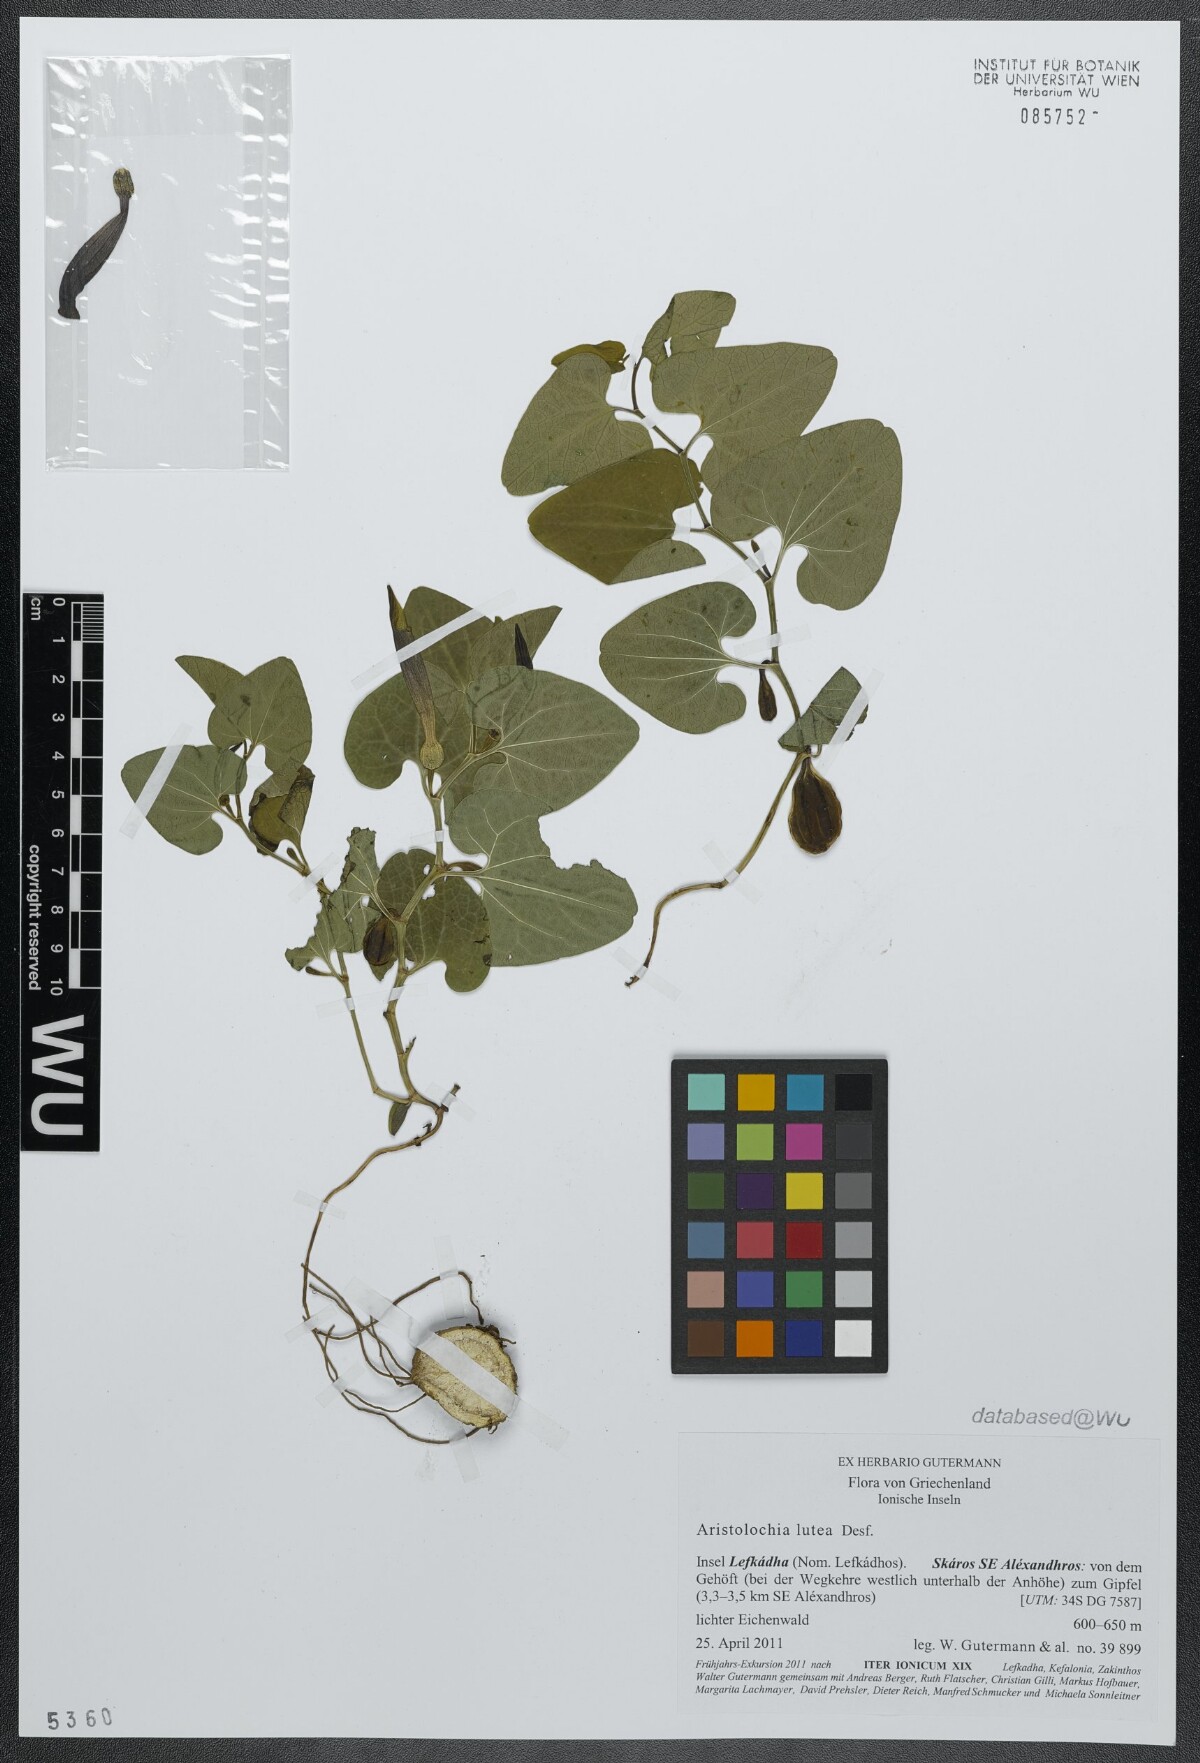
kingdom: Plantae
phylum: Tracheophyta
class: Magnoliopsida
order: Piperales
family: Aristolochiaceae
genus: Aristolochia
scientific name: Aristolochia lutea
